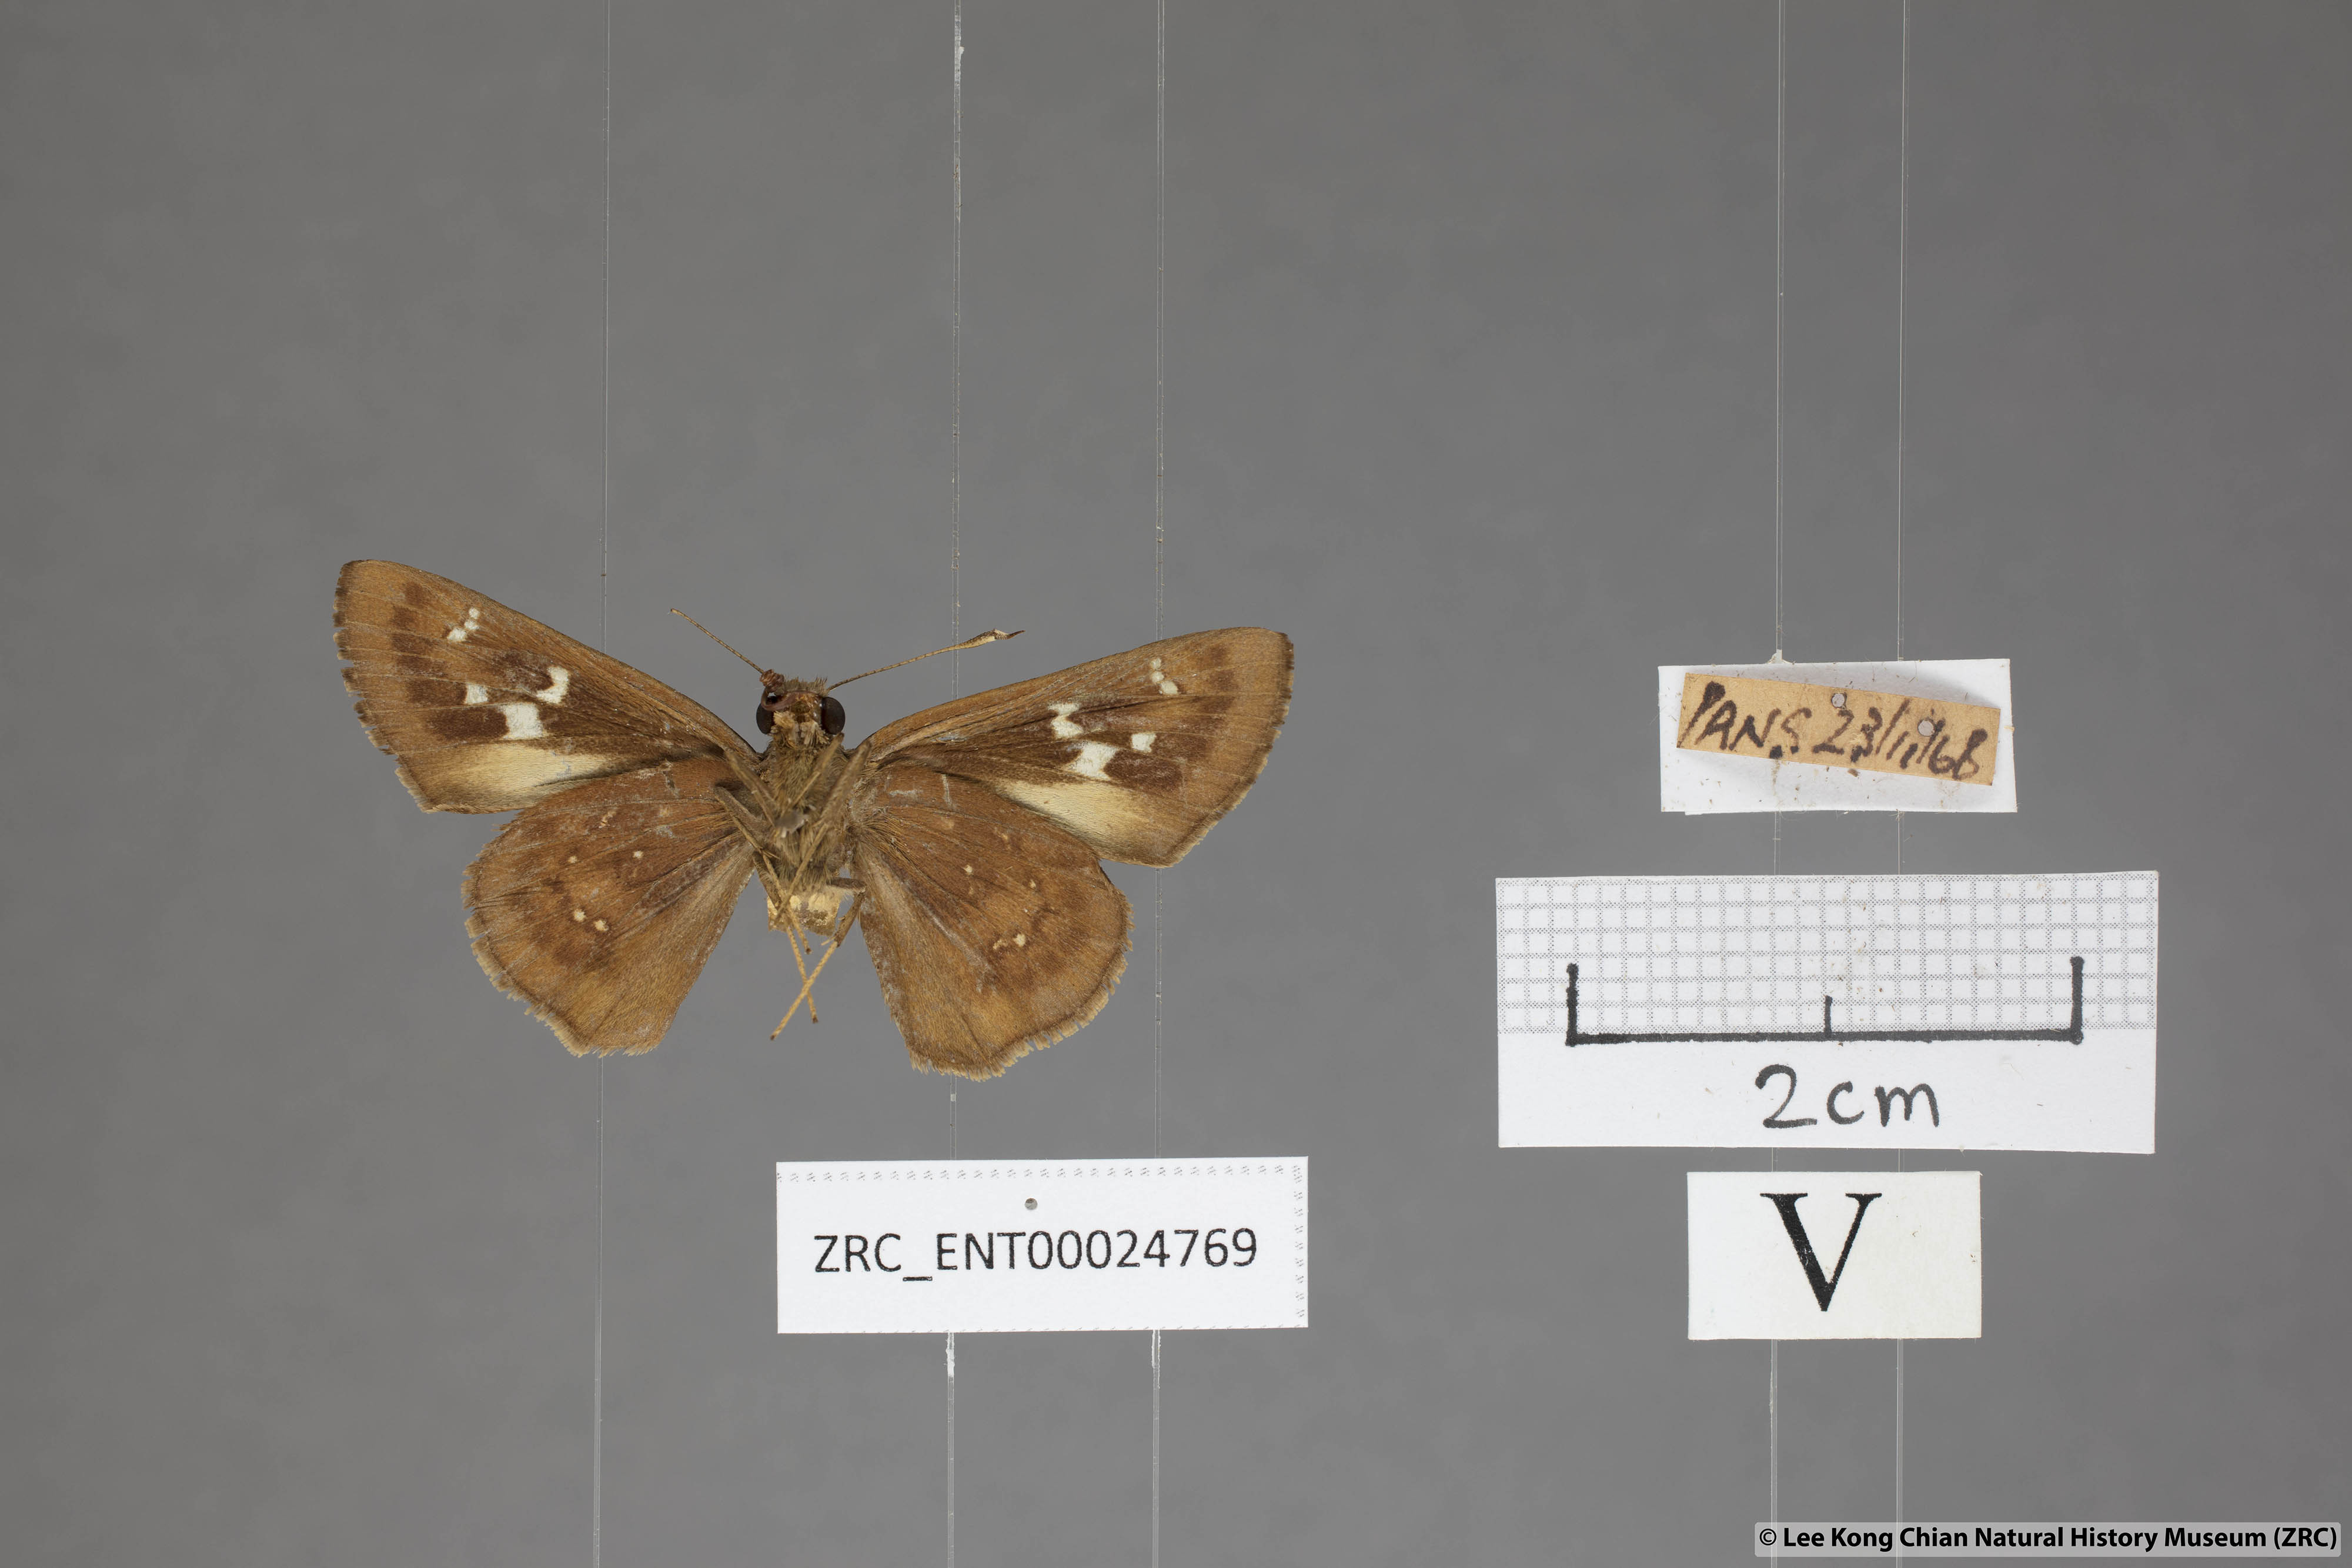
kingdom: Animalia
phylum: Arthropoda
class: Insecta
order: Lepidoptera
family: Hesperiidae
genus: Hyarotis
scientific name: Hyarotis microstictum
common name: Small brush flitter
